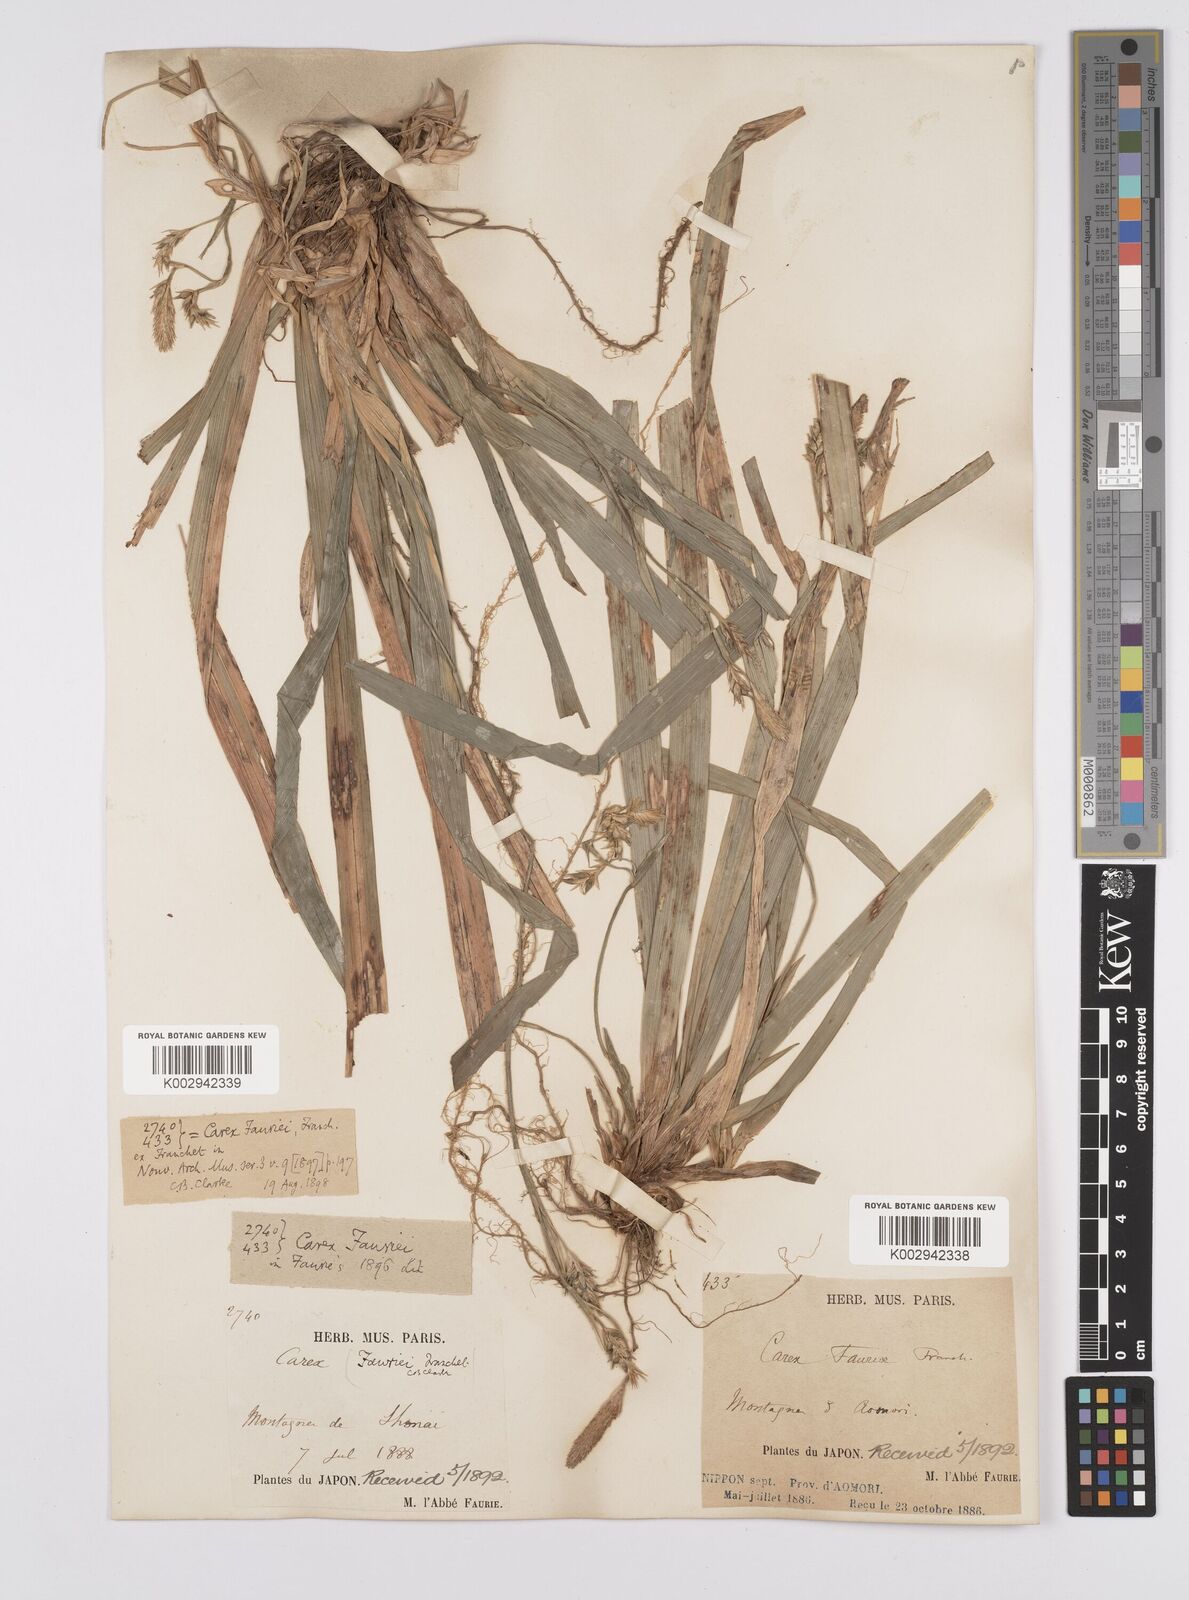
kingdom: Plantae
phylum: Tracheophyta
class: Liliopsida
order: Poales
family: Cyperaceae
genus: Carex
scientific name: Carex phacota
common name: Lakeshore sedge
